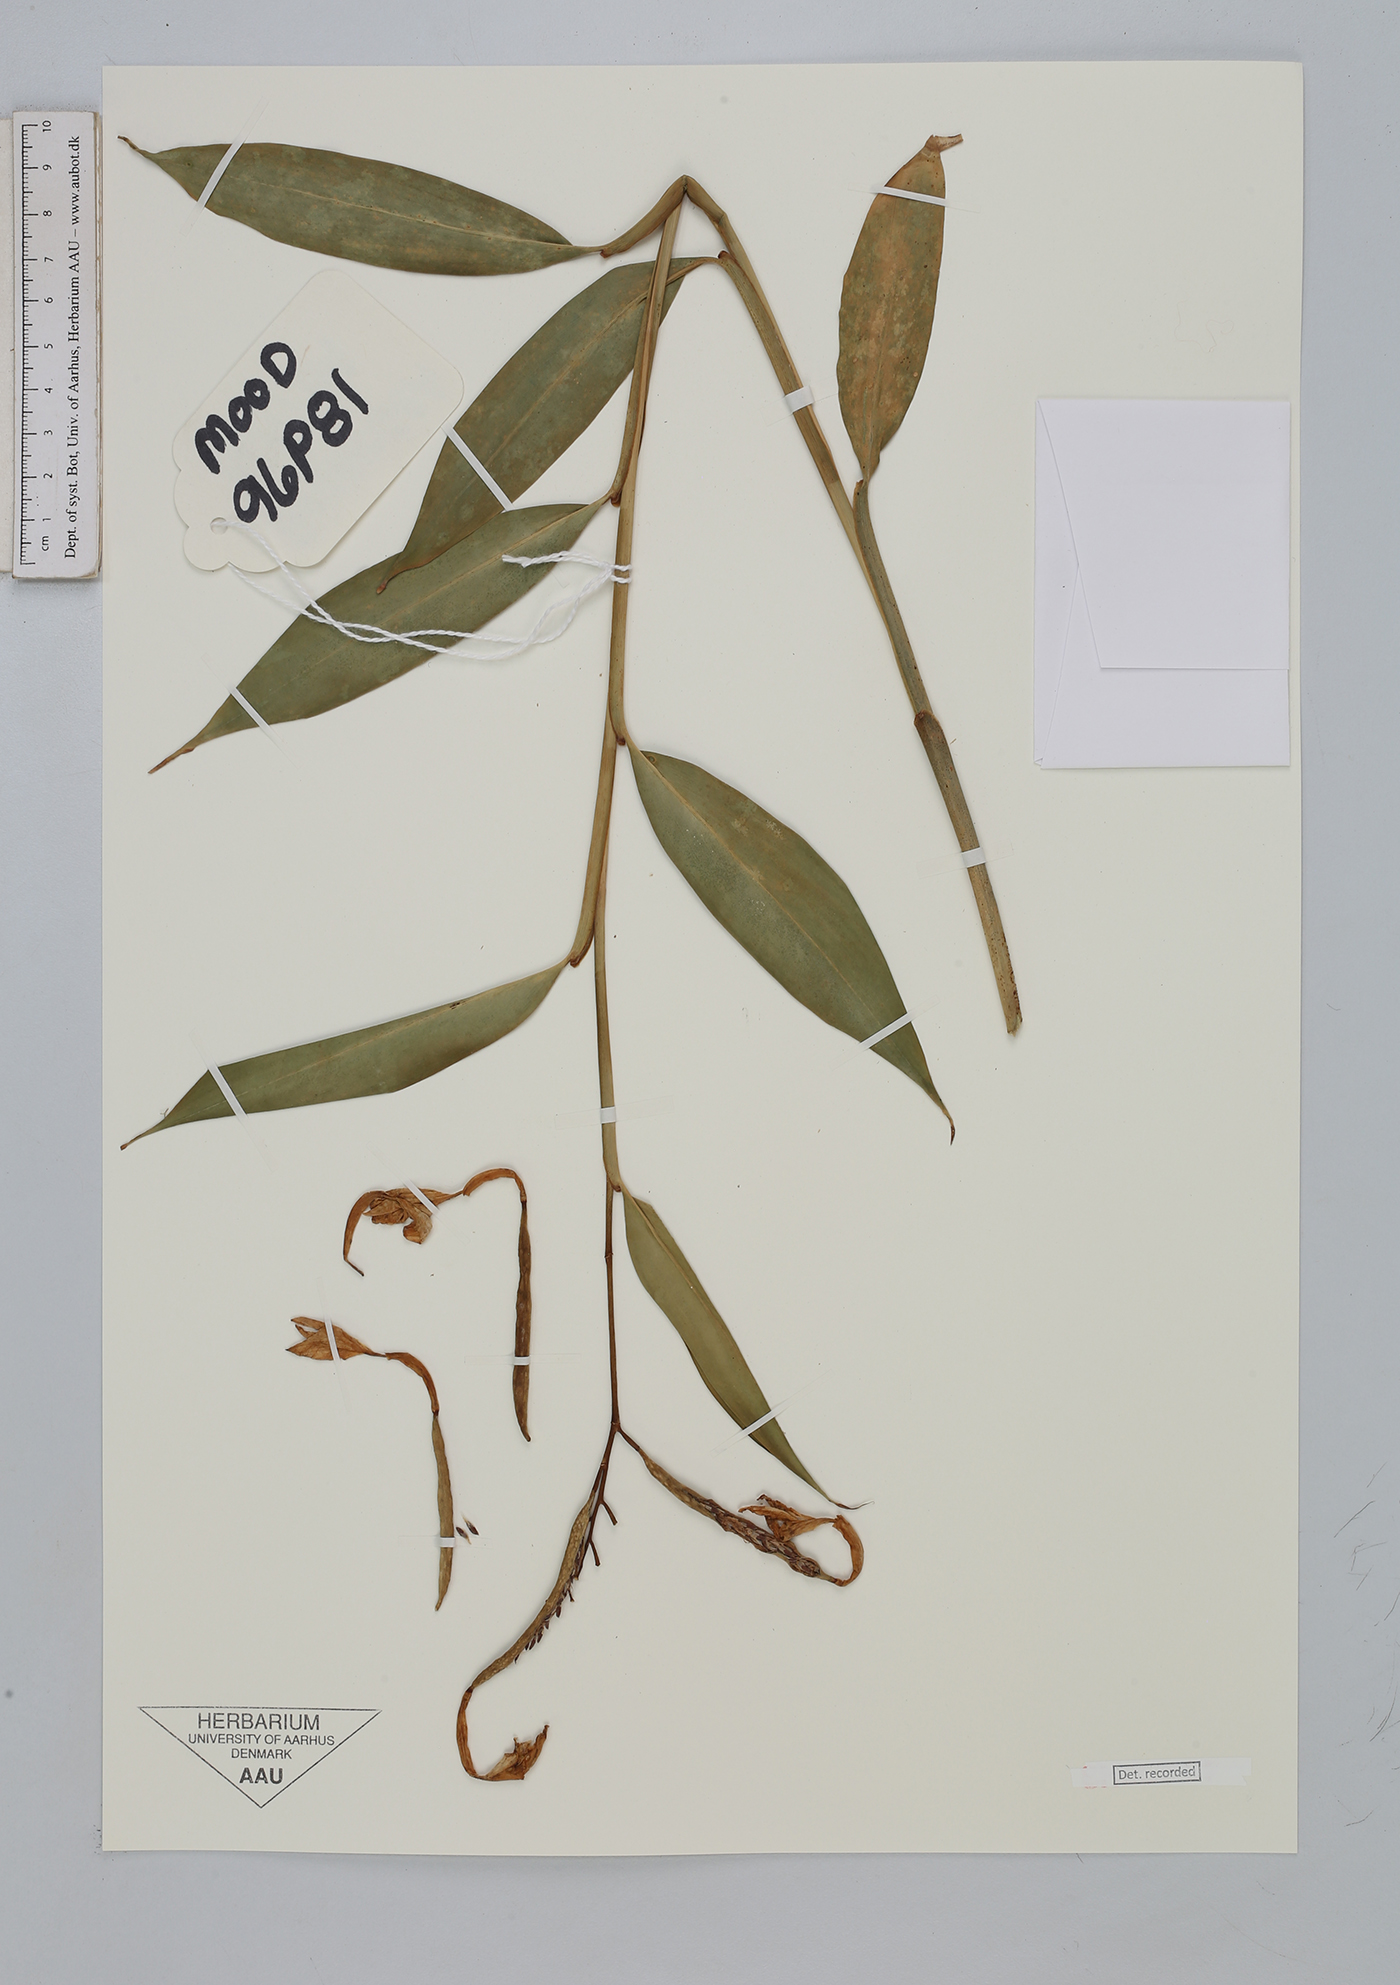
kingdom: Plantae
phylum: Tracheophyta
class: Liliopsida
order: Zingiberales
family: Zingiberaceae
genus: Burbidgea
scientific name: Burbidgea
